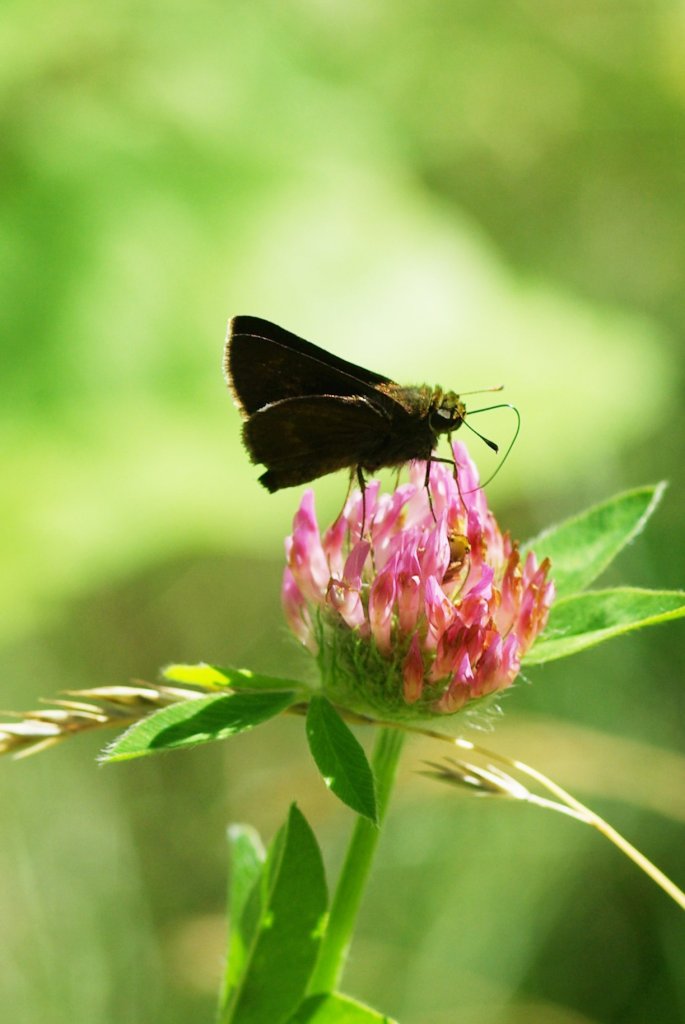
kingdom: Animalia
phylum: Arthropoda
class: Insecta
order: Lepidoptera
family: Hesperiidae
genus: Euphyes
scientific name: Euphyes vestris
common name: Dun Skipper
